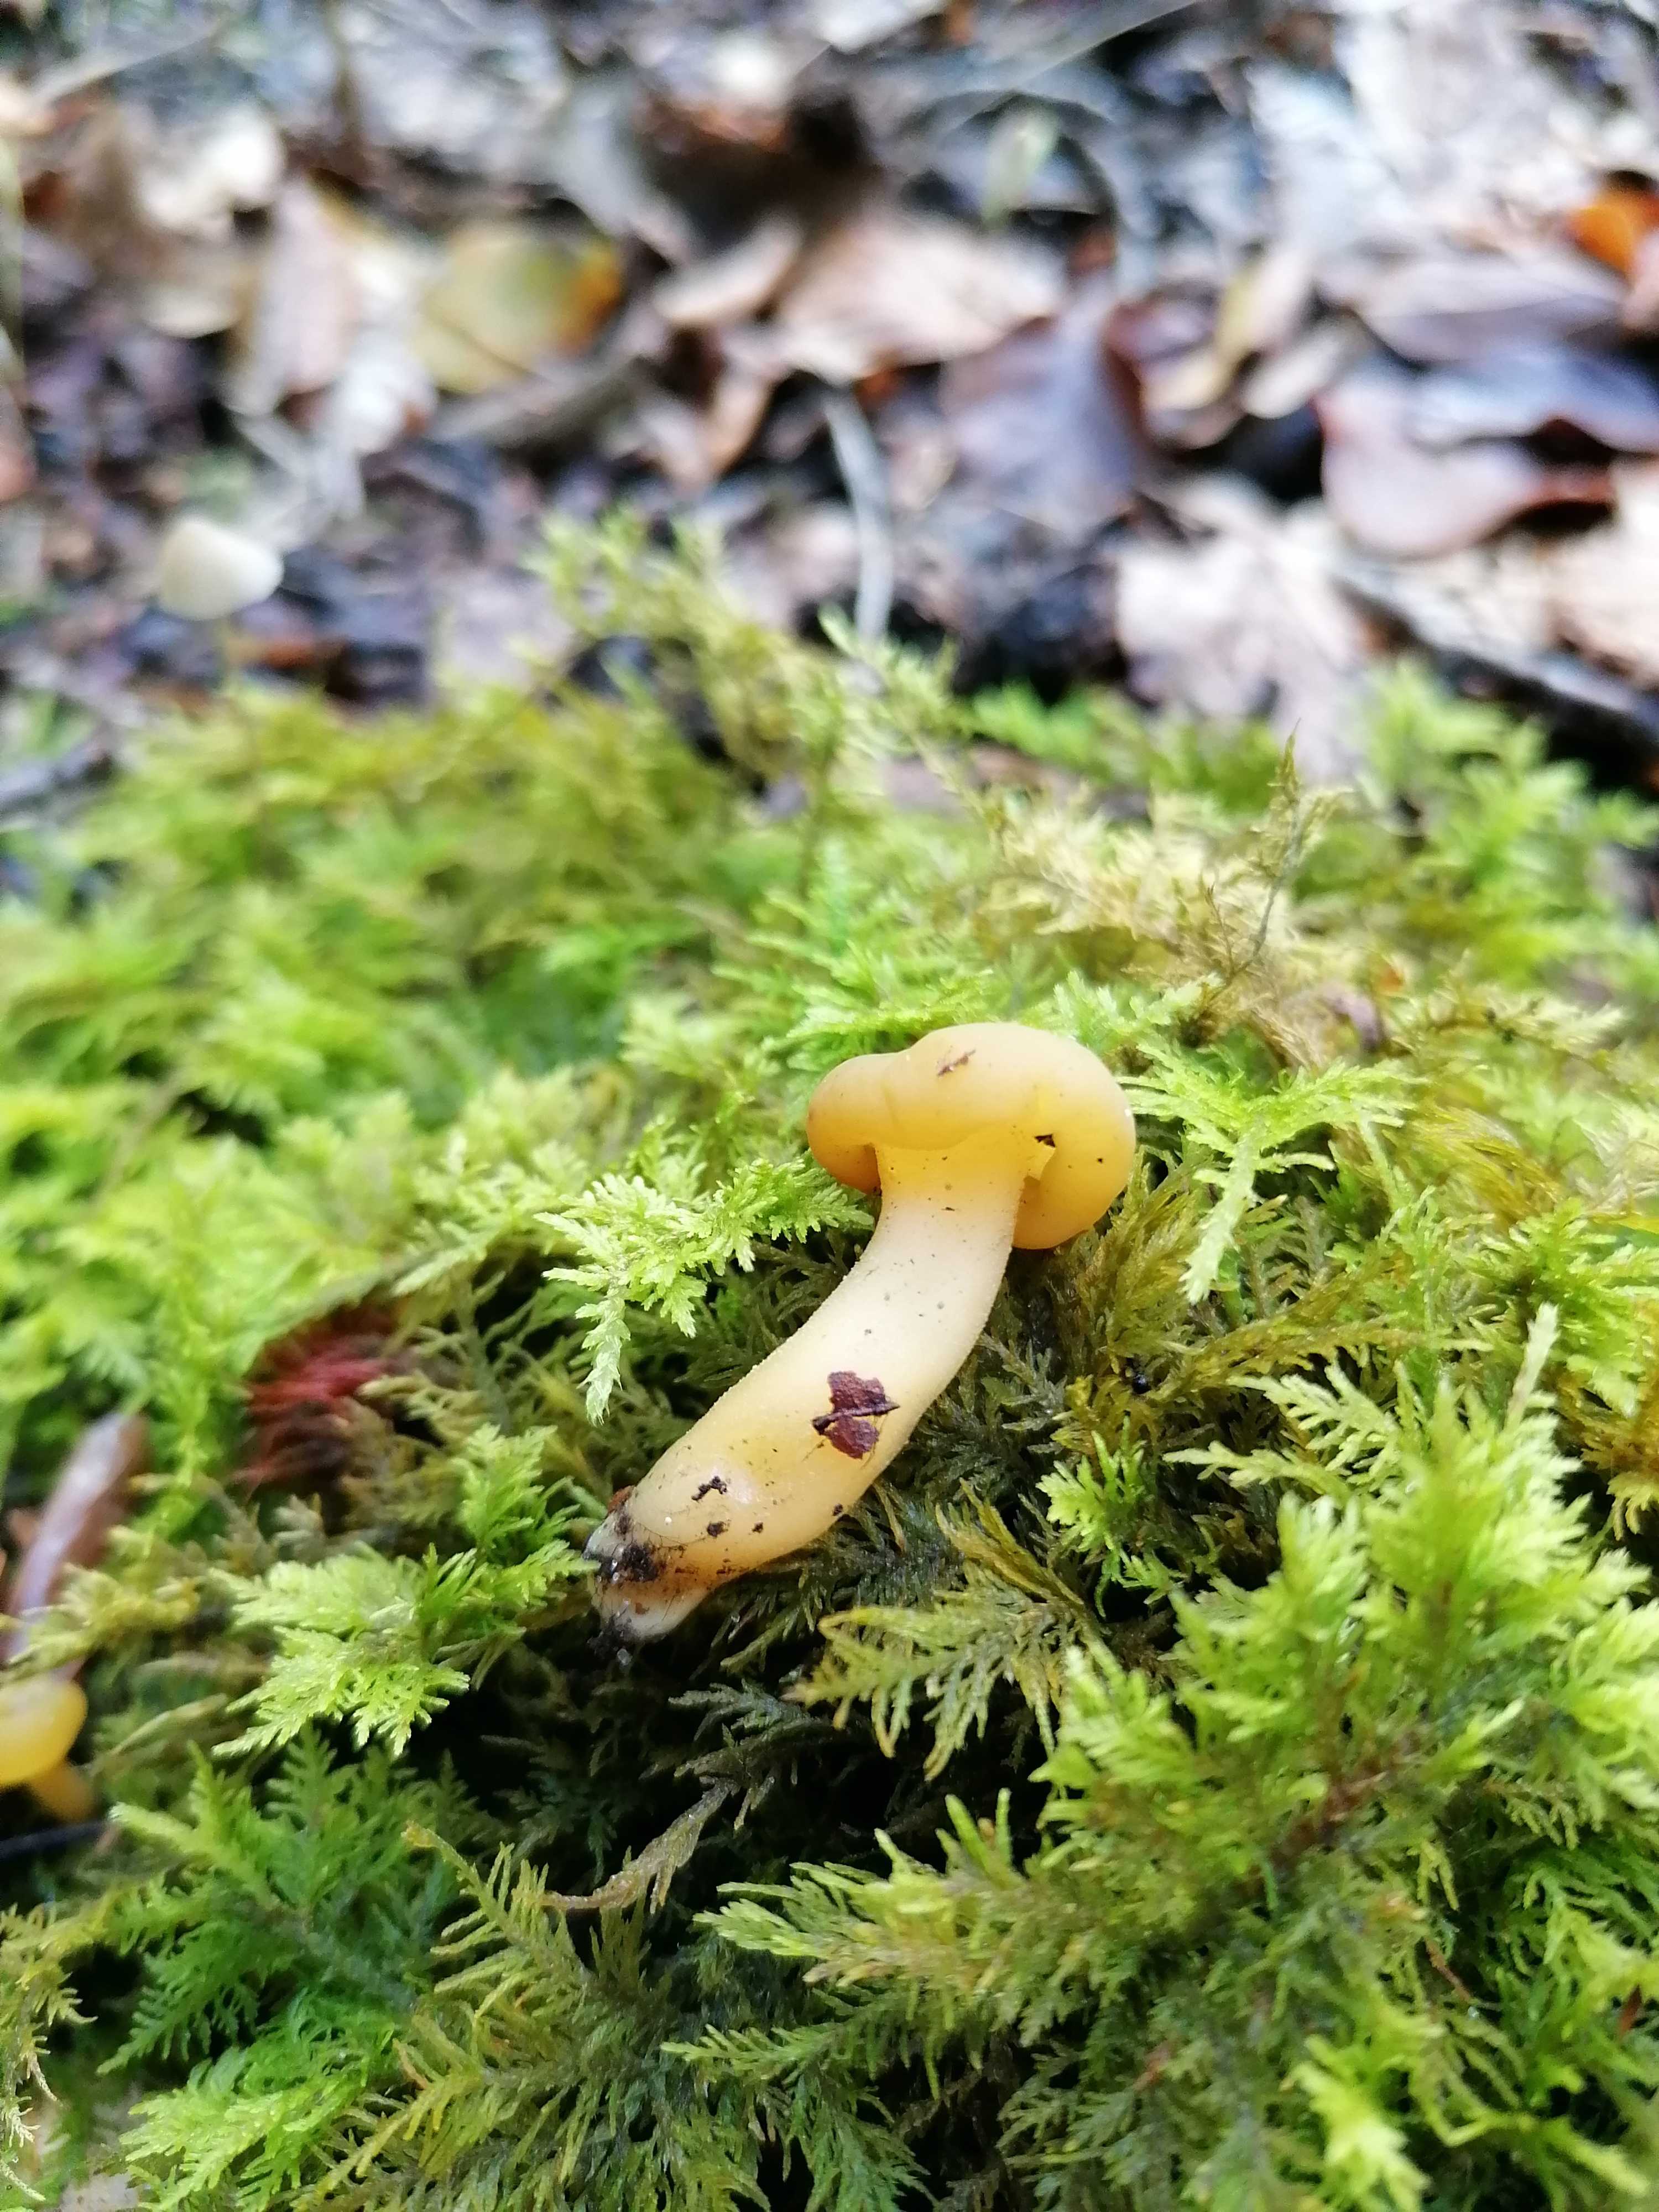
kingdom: Fungi
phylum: Ascomycota
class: Leotiomycetes
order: Leotiales
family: Leotiaceae
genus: Leotia
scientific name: Leotia lubrica
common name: ravsvamp
